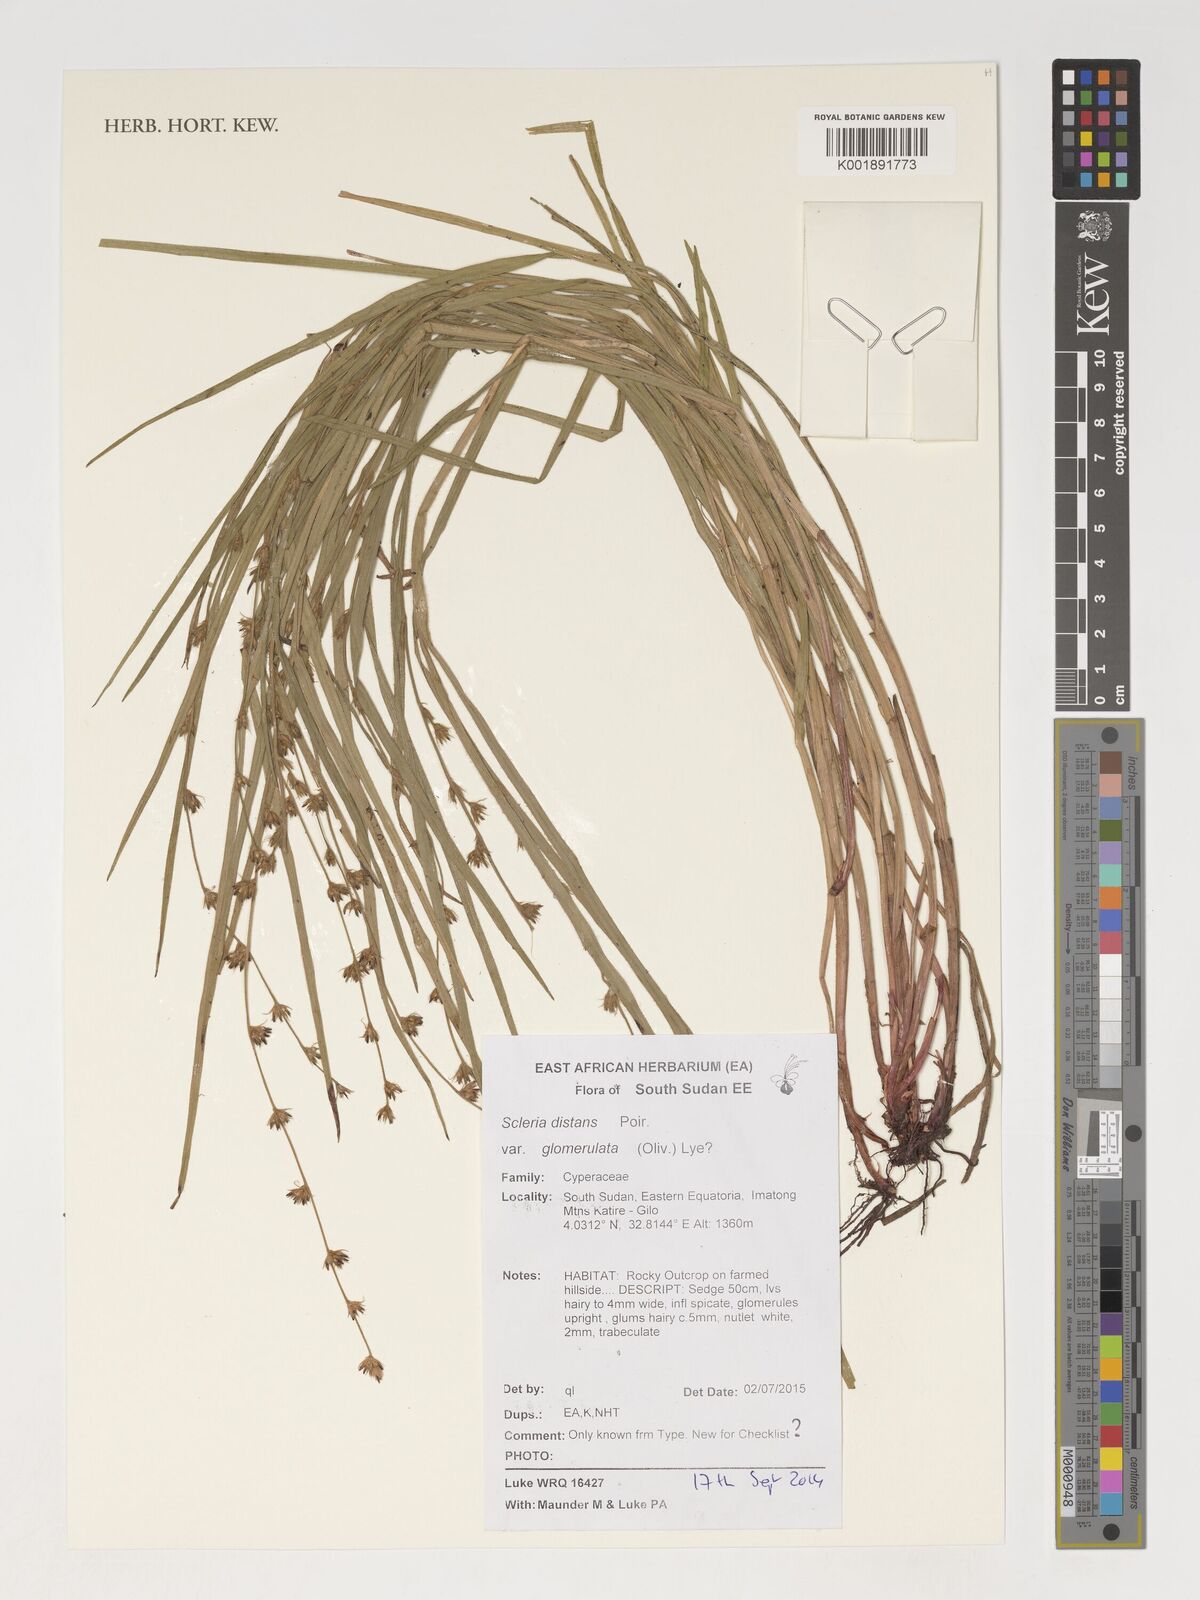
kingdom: Plantae
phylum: Tracheophyta
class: Liliopsida
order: Poales
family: Cyperaceae
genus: Scleria
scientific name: Scleria glomerulata
